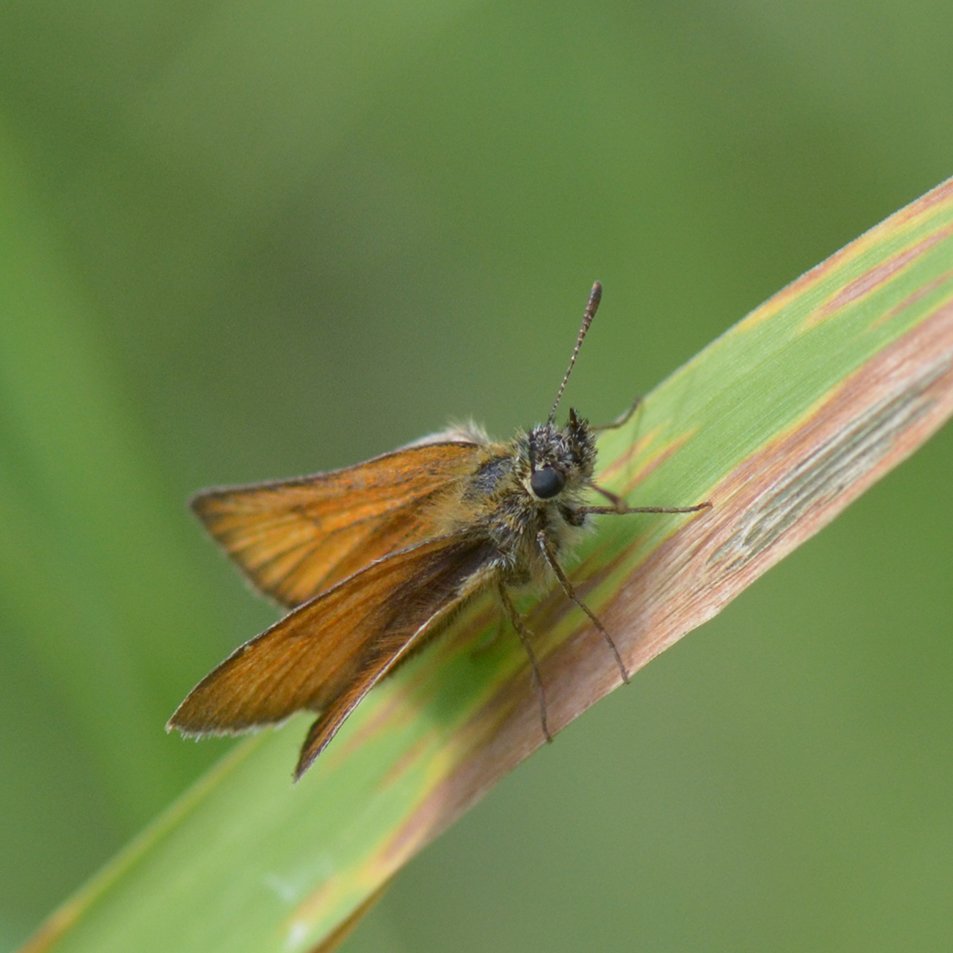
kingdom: Animalia
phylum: Arthropoda
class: Insecta
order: Lepidoptera
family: Hesperiidae
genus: Thymelicus
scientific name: Thymelicus lineola
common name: European Skipper
